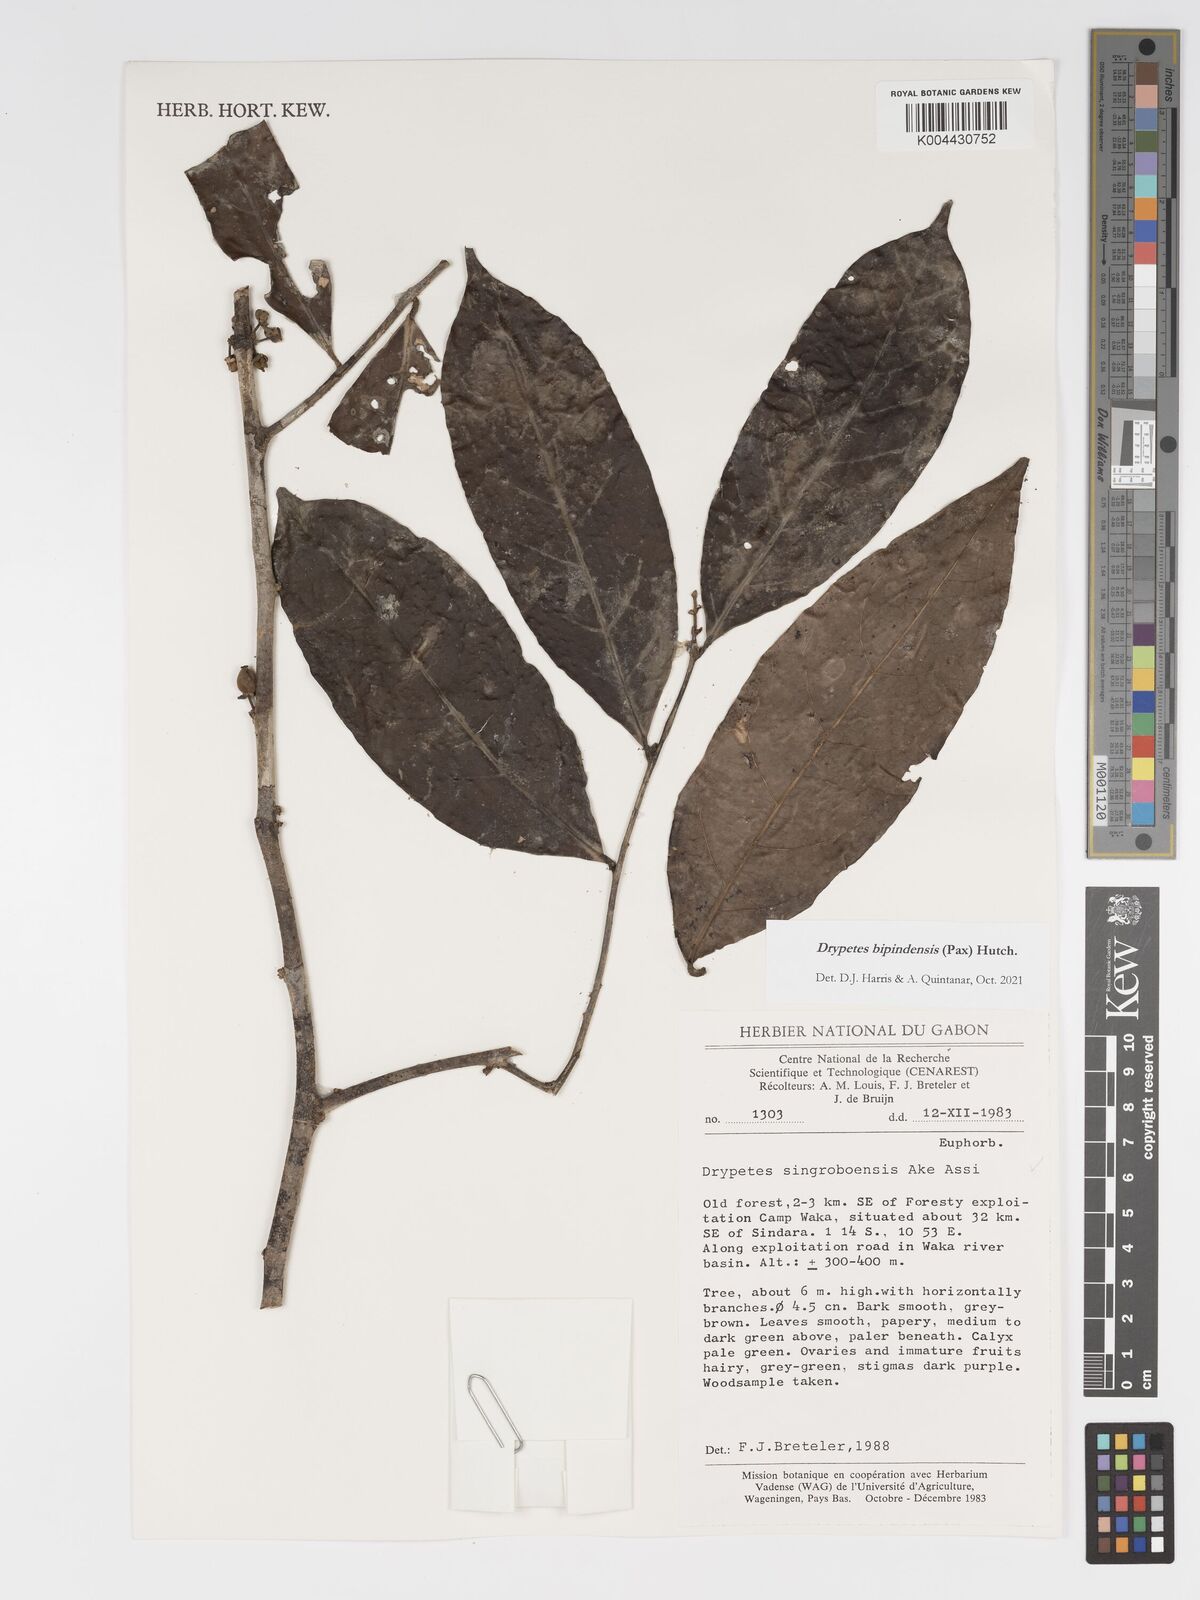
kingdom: Plantae
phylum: Tracheophyta
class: Magnoliopsida
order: Malpighiales
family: Putranjivaceae
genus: Drypetes
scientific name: Drypetes bipindensis
